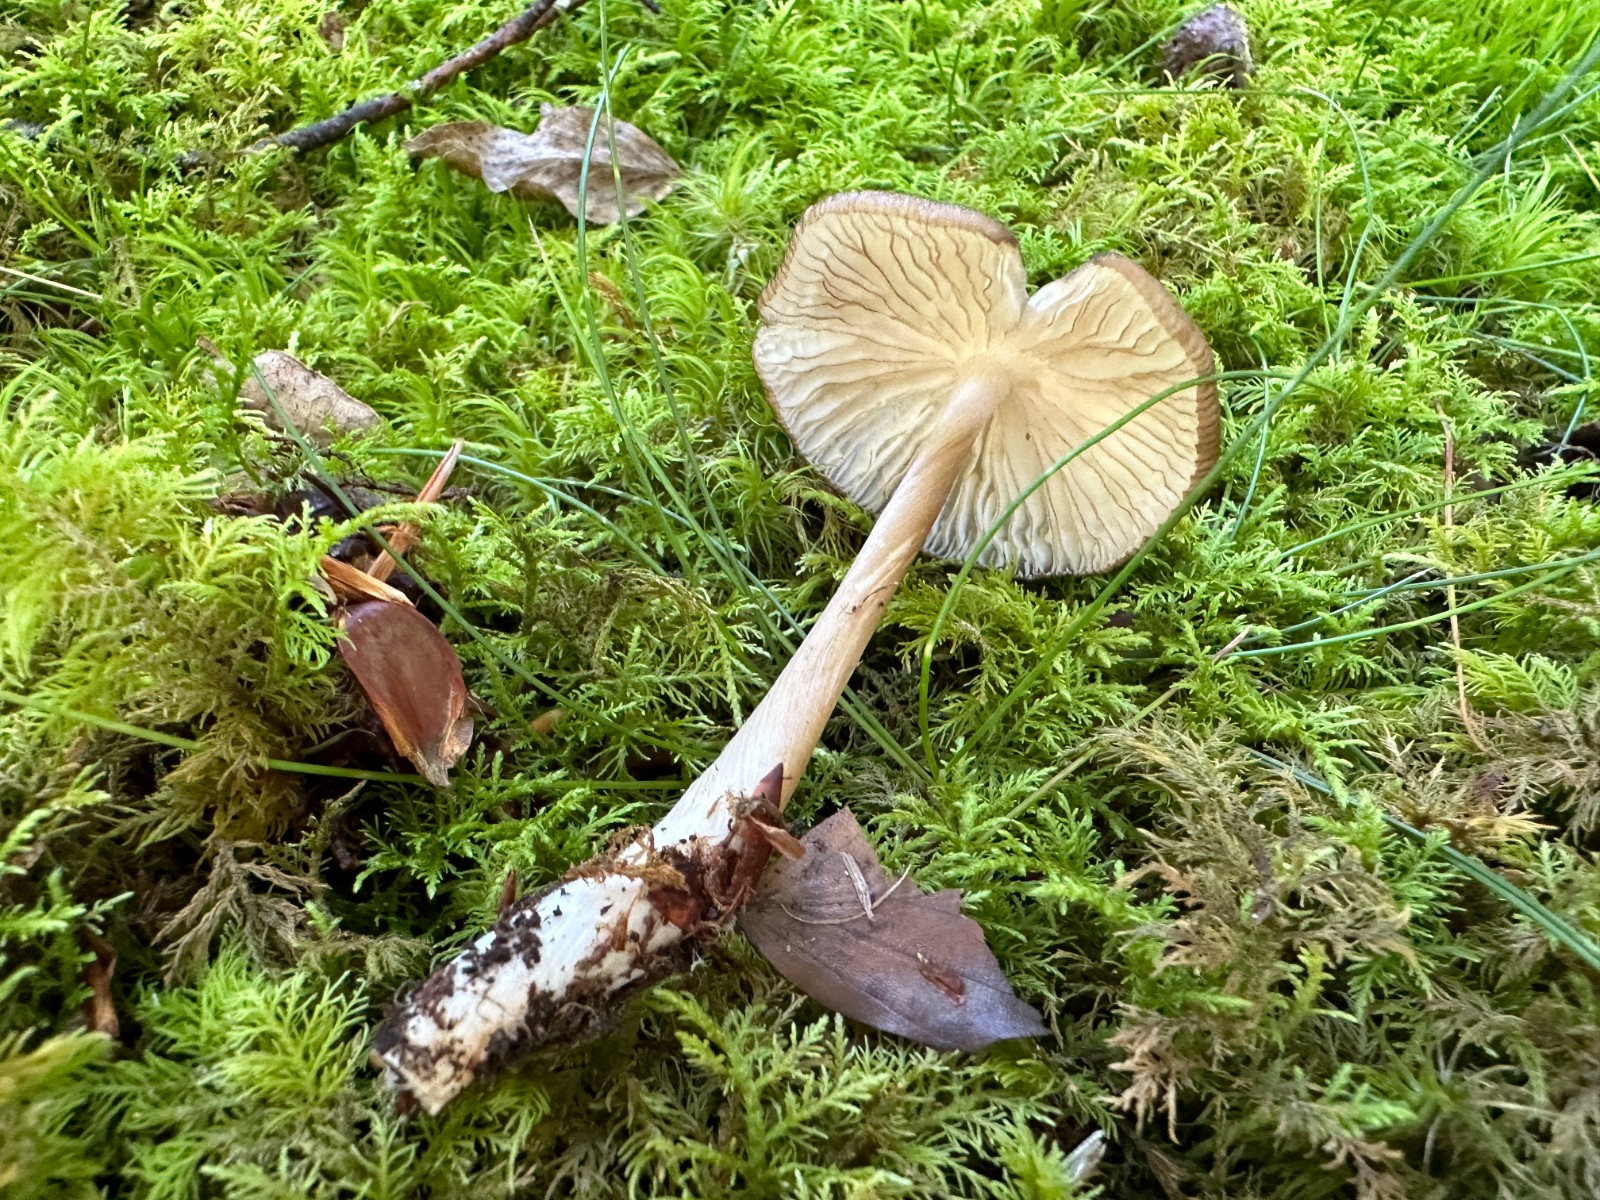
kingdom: Fungi
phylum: Basidiomycota
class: Agaricomycetes
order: Agaricales
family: Physalacriaceae
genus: Hymenopellis
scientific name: Hymenopellis radicata
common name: almindelig pælerodshat
